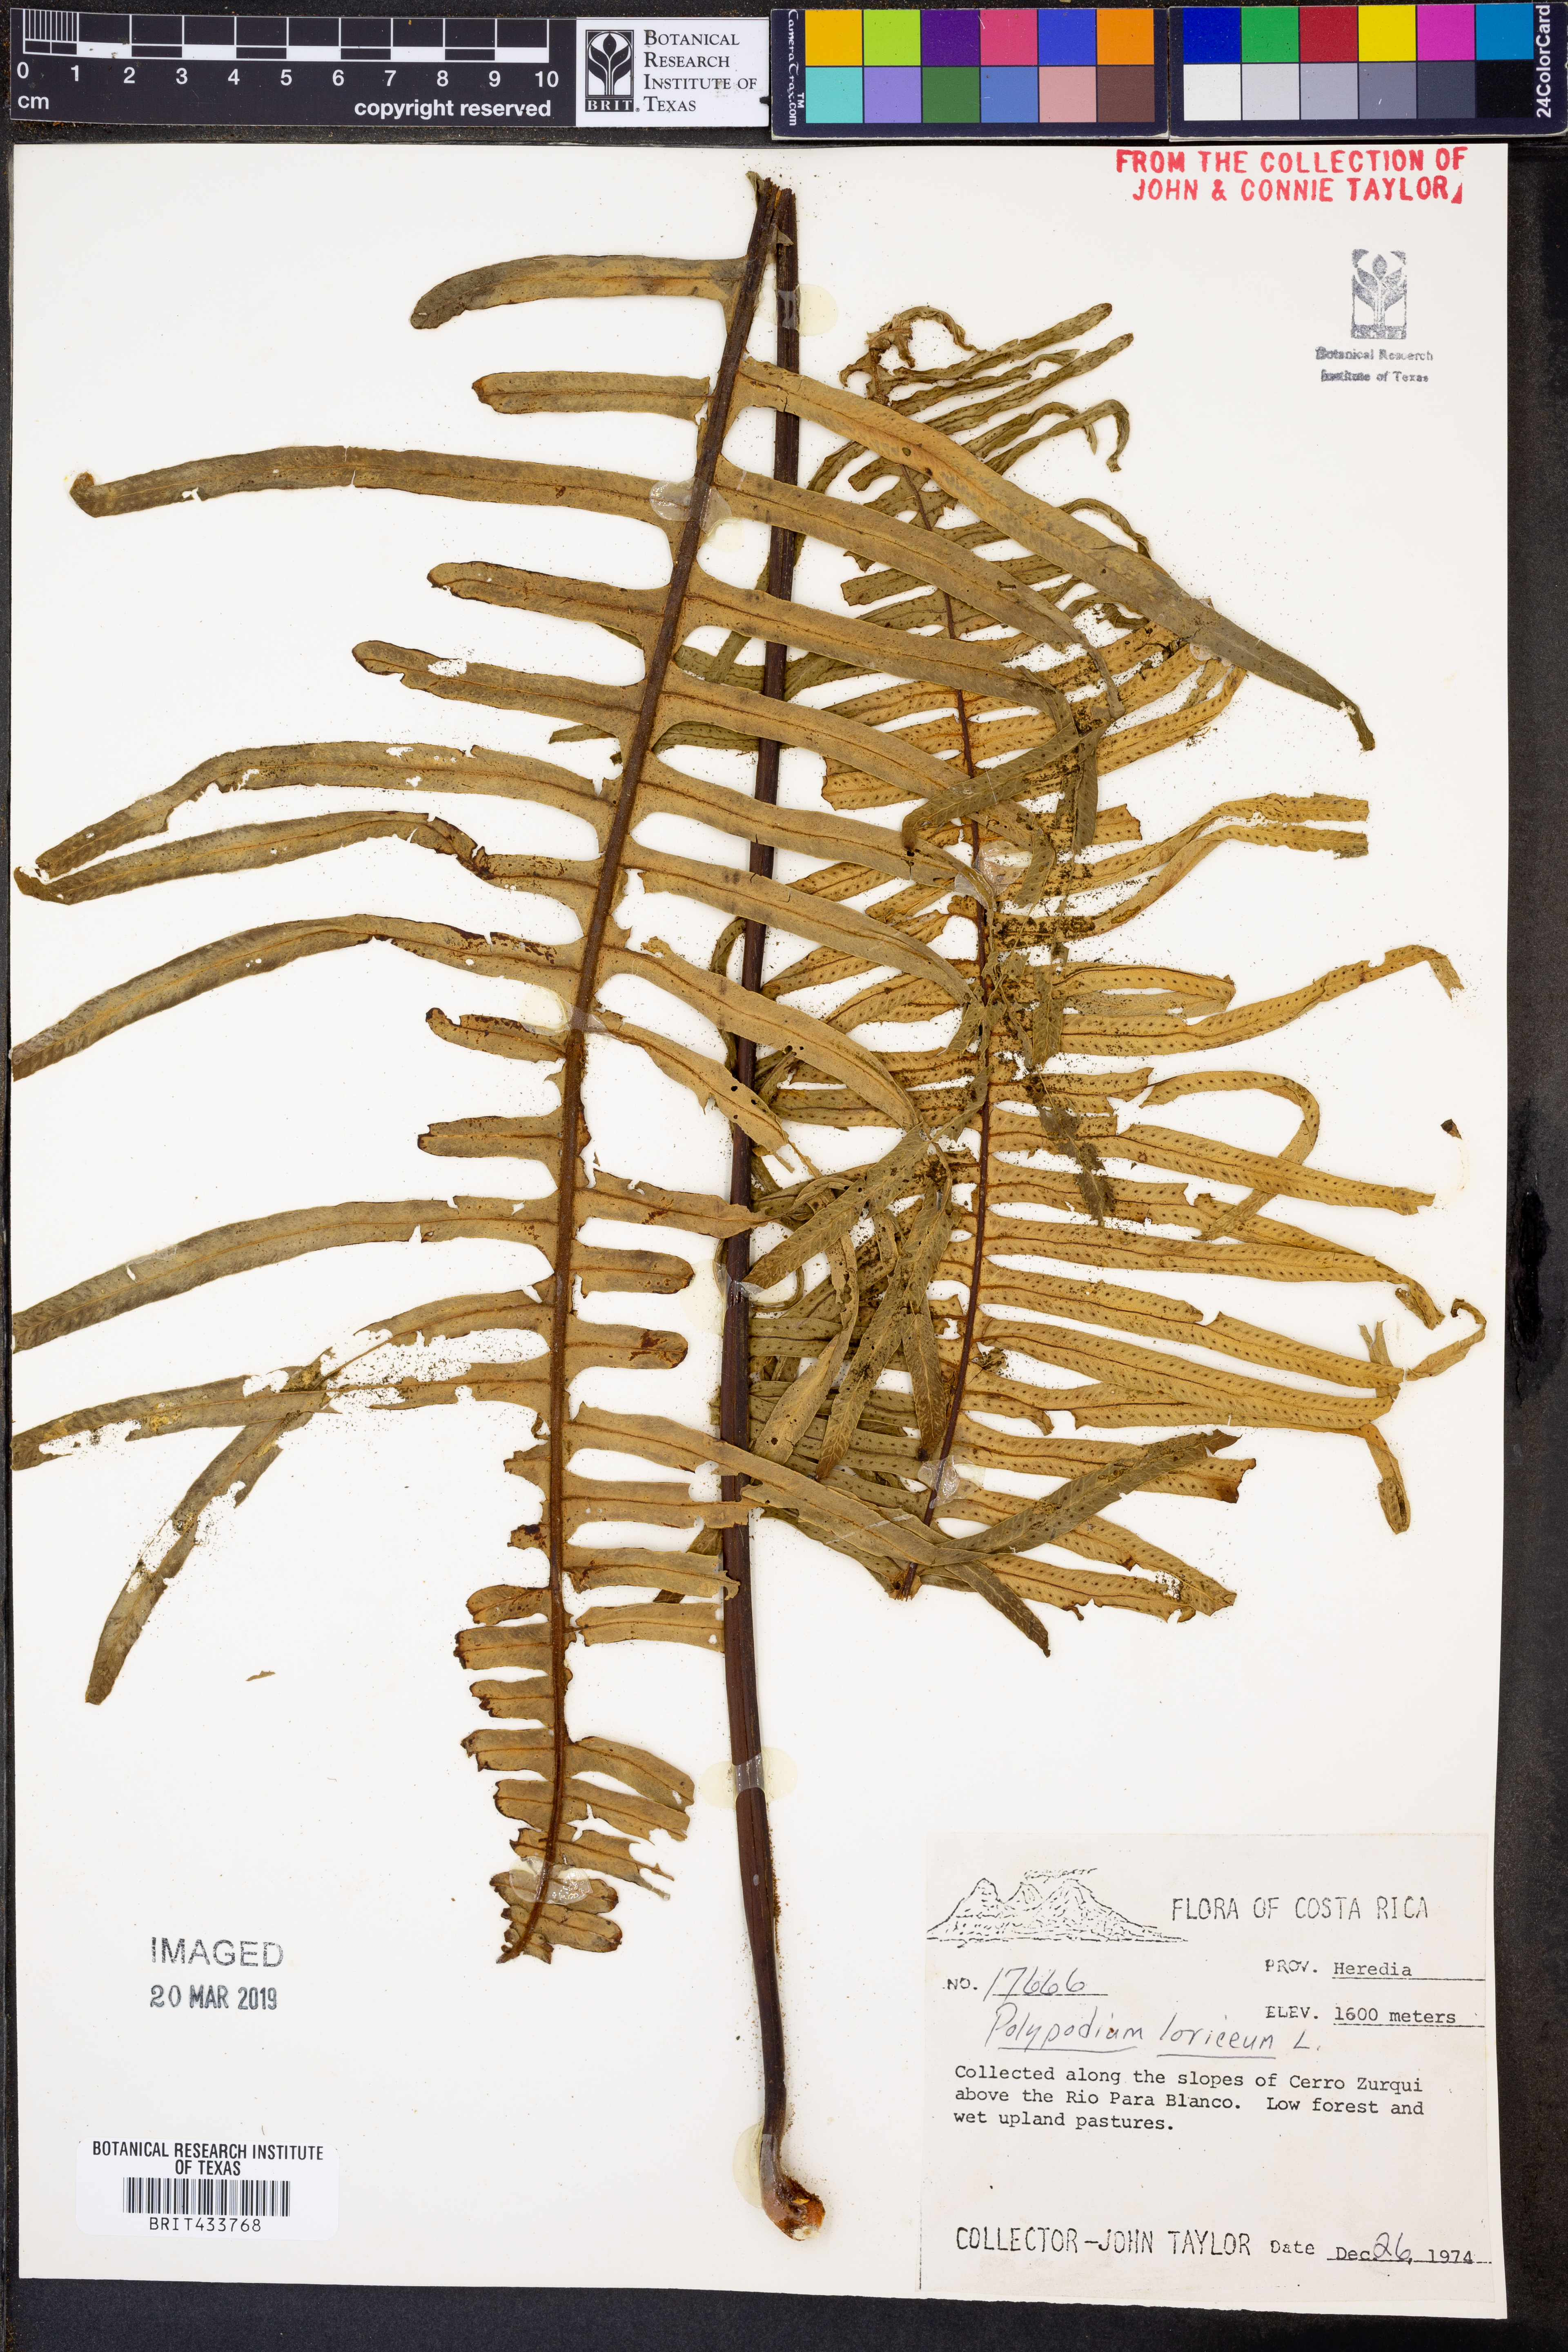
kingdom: Plantae
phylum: Tracheophyta
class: Polypodiopsida
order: Polypodiales
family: Polypodiaceae
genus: Serpocaulon
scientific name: Serpocaulon loriceum
